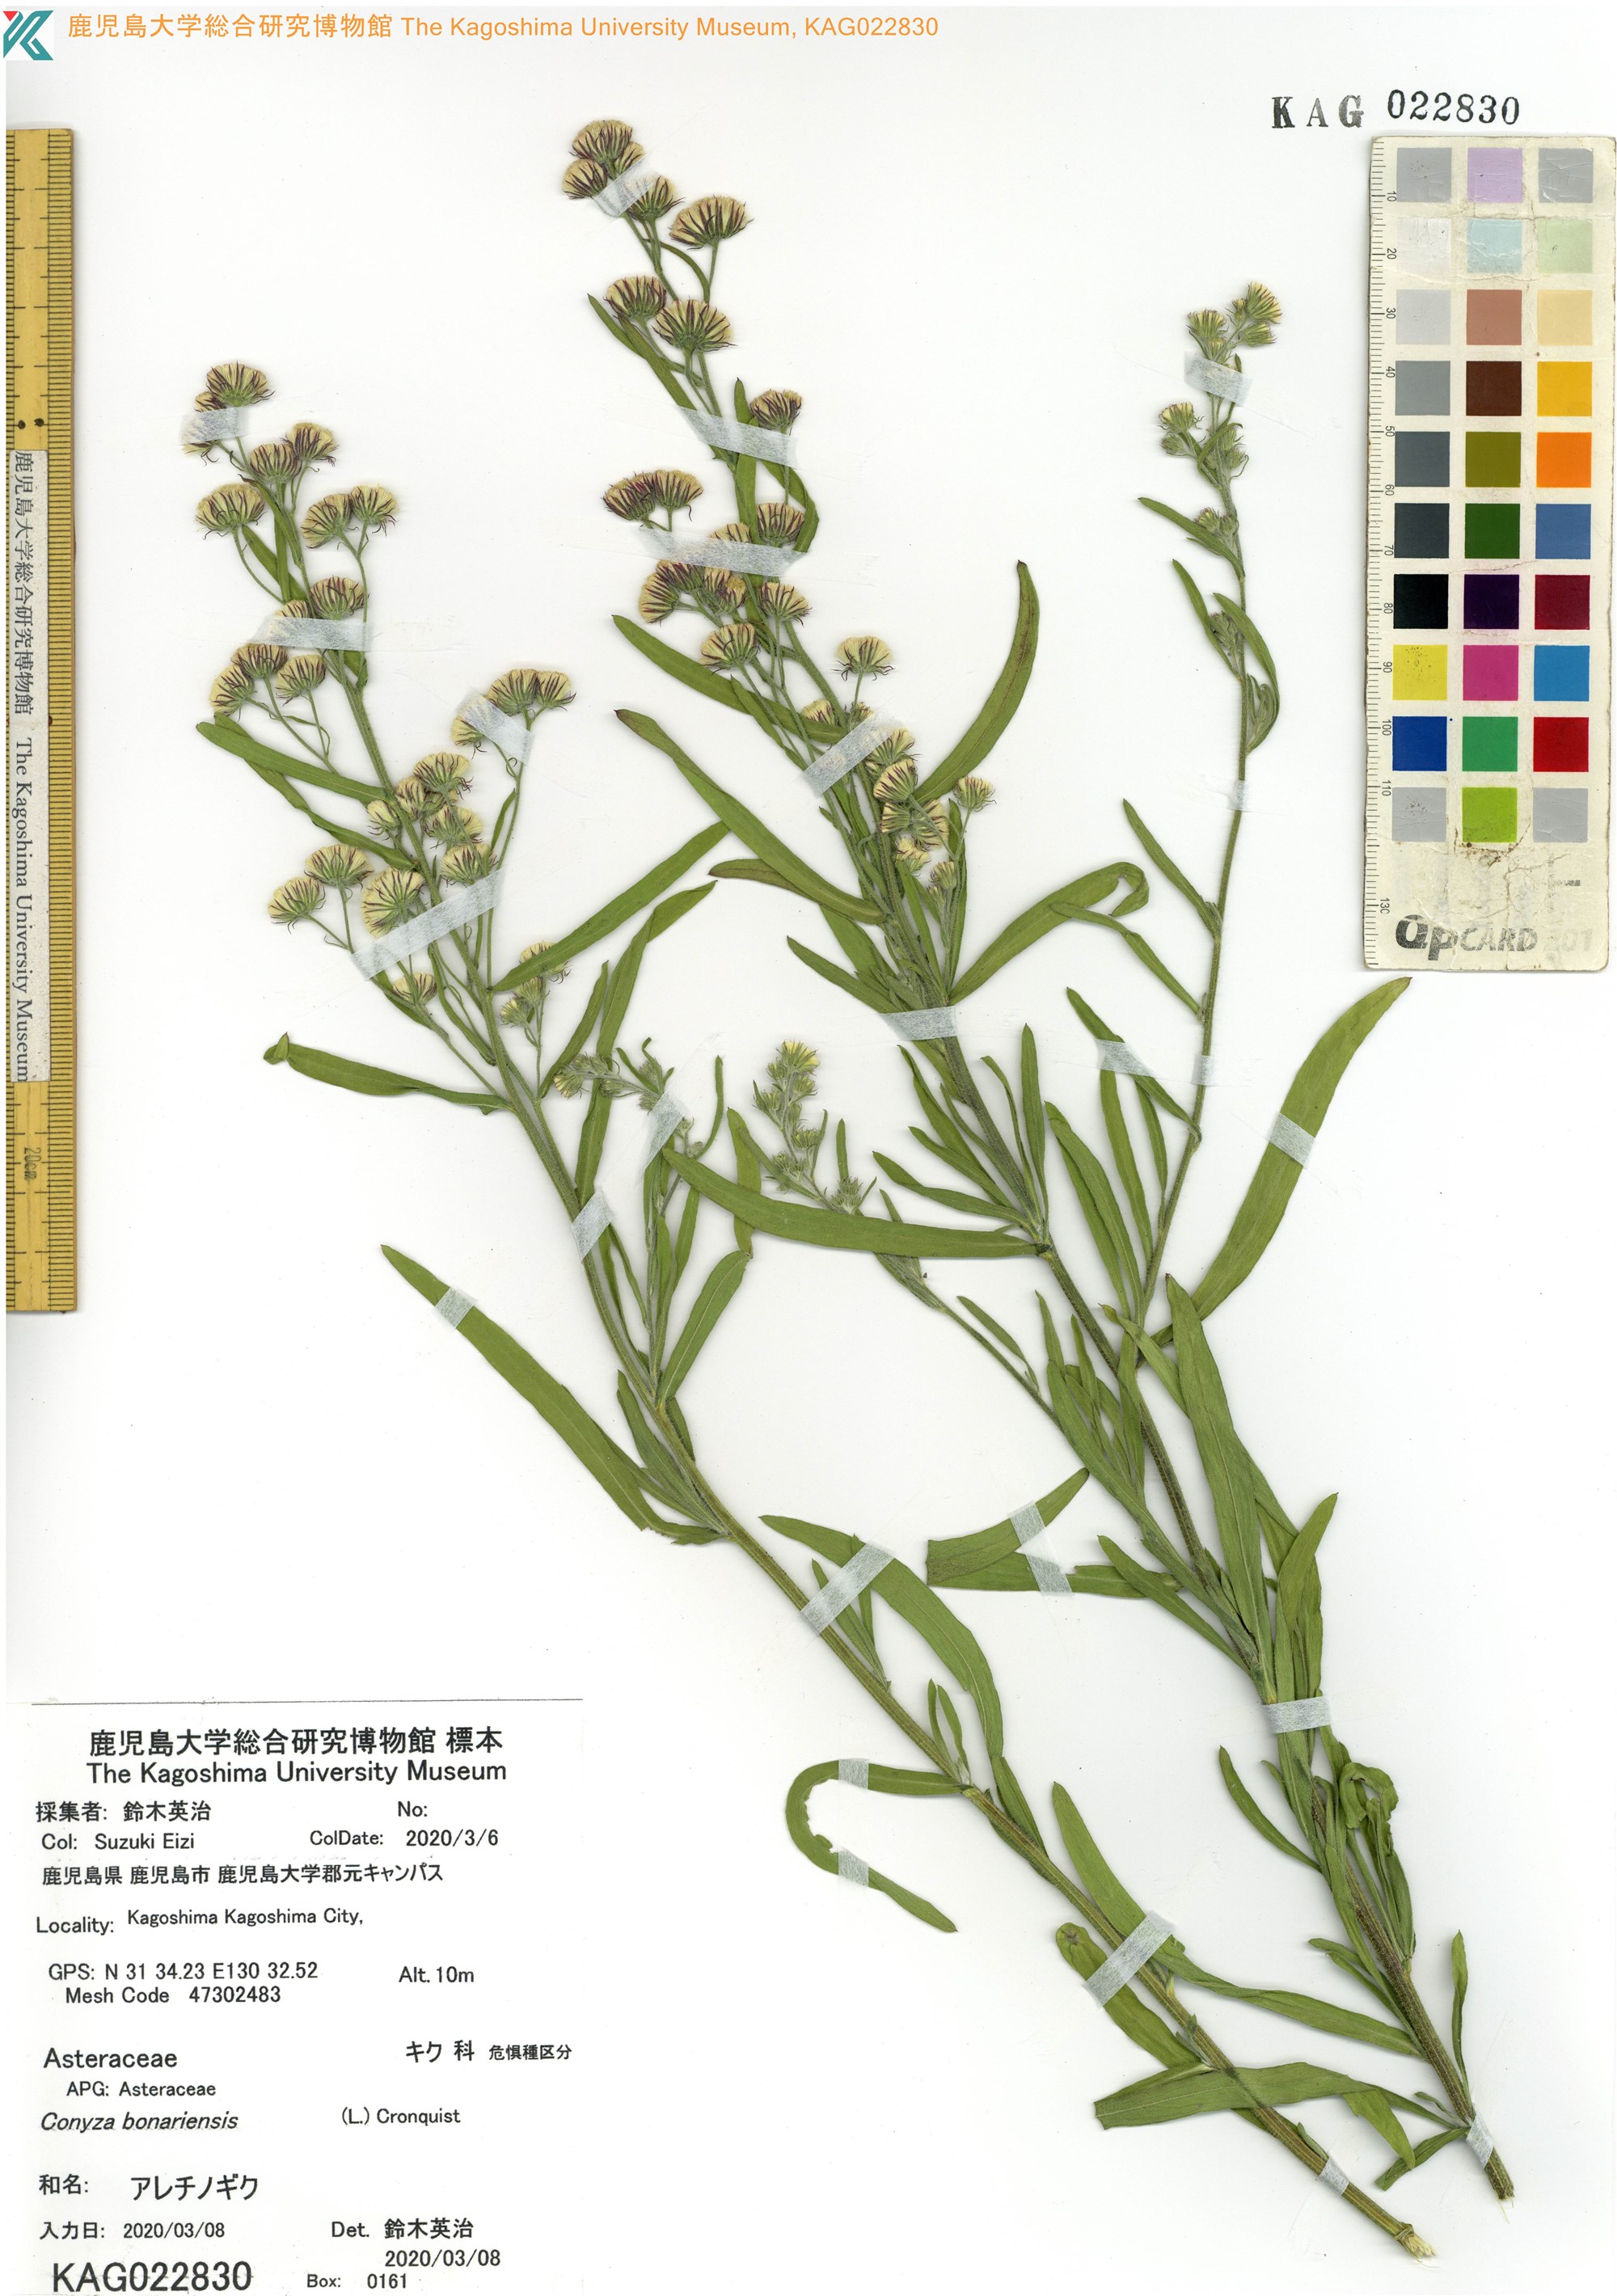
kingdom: Plantae
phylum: Tracheophyta
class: Magnoliopsida
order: Asterales
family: Asteraceae
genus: Erigeron
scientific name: Erigeron bonariensis
